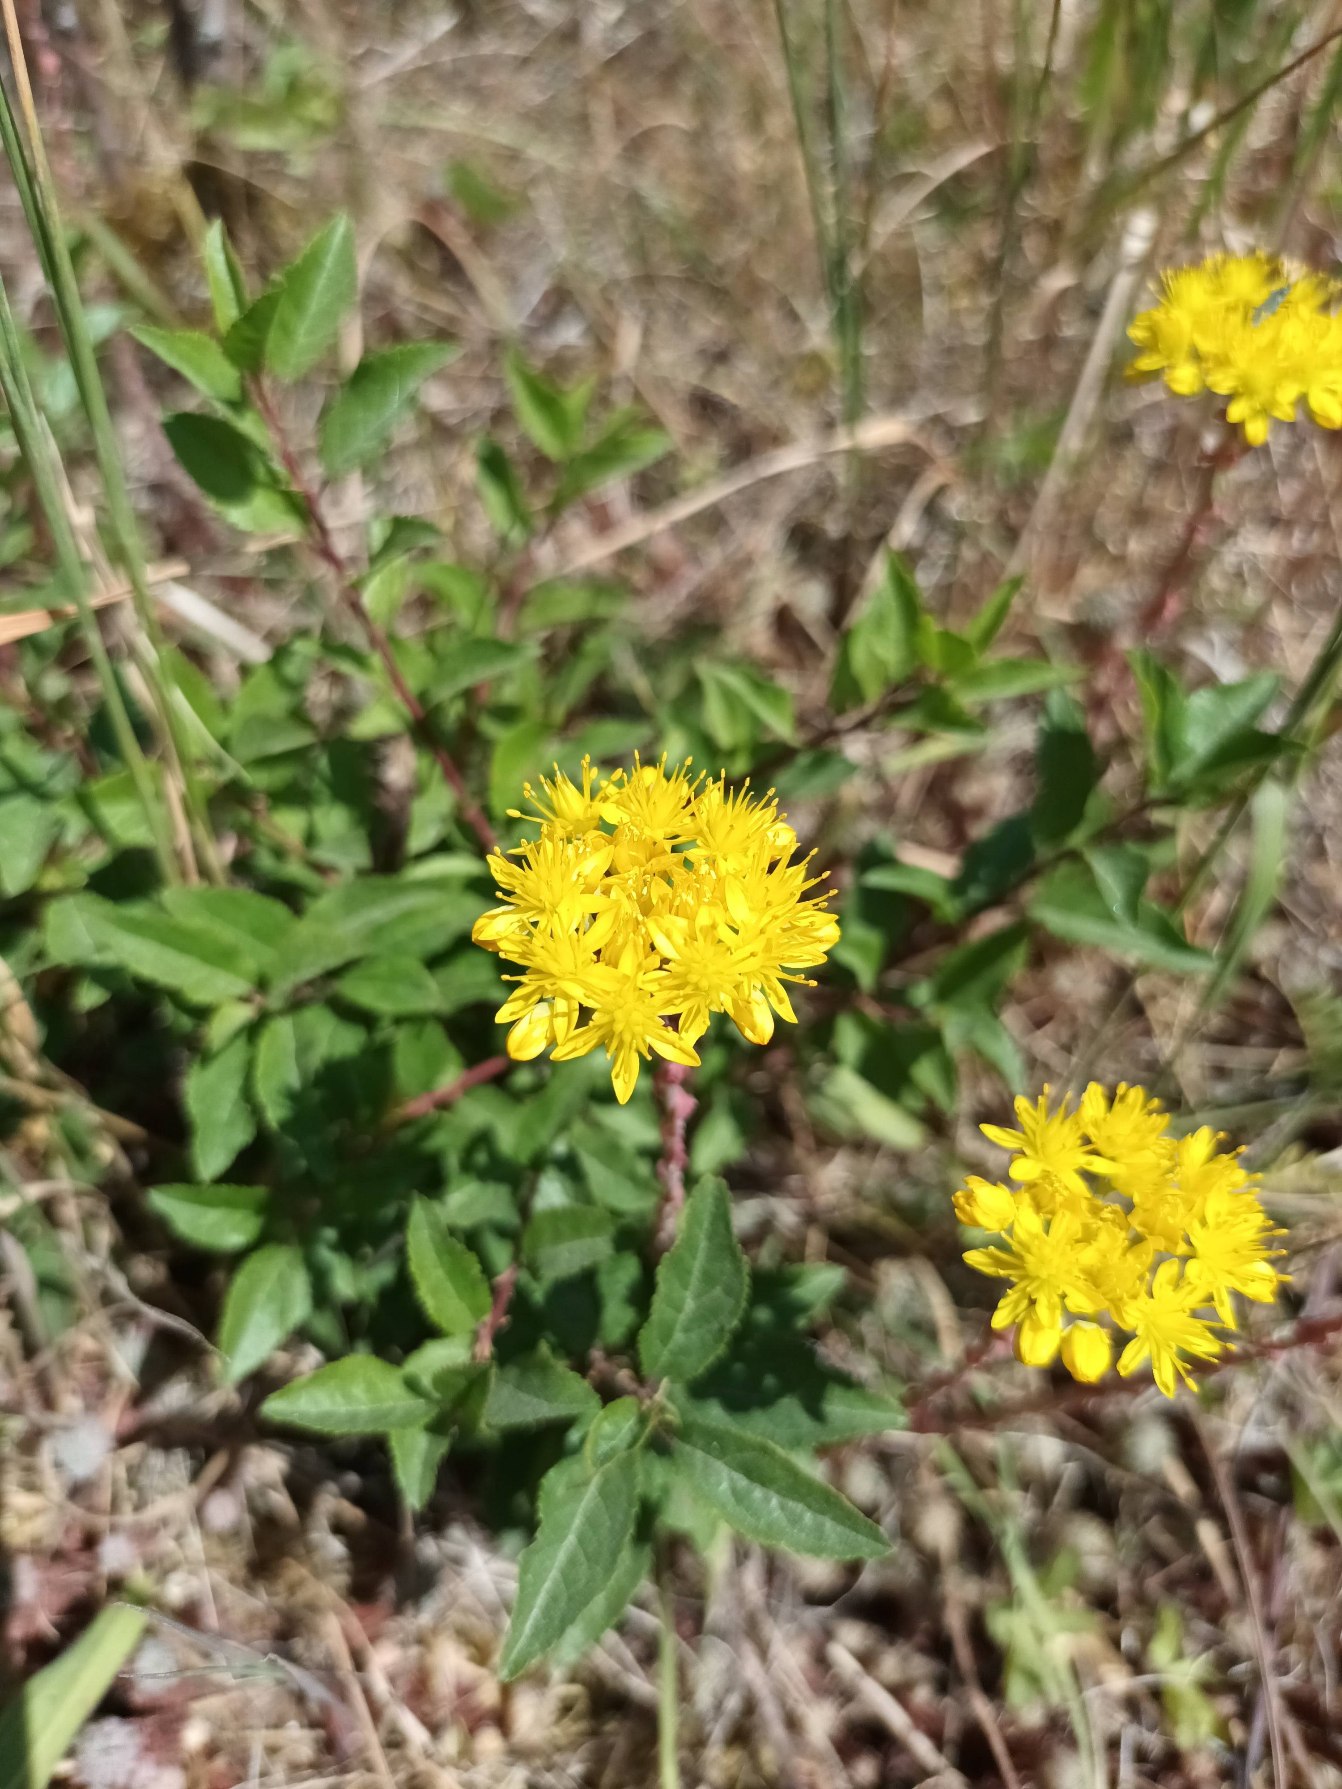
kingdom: Plantae
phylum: Tracheophyta
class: Magnoliopsida
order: Saxifragales
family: Crassulaceae
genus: Petrosedum
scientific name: Petrosedum forsterianum
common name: Fransk stenurt
